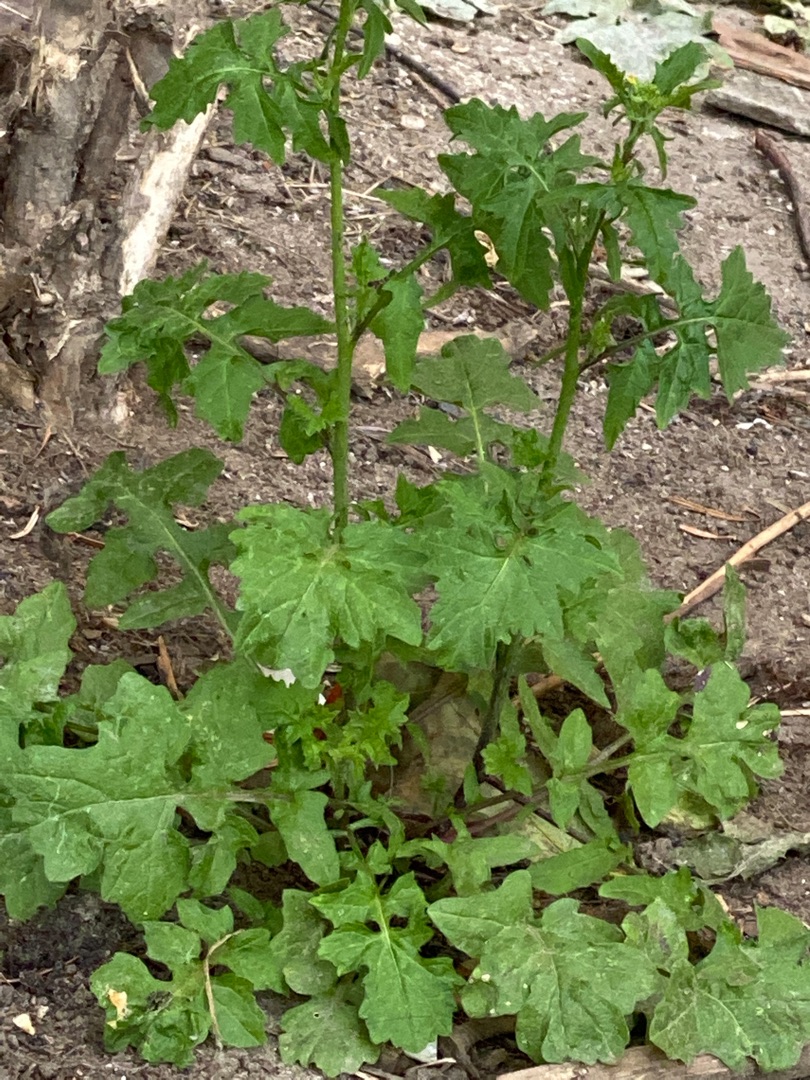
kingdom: Plantae
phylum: Tracheophyta
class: Magnoliopsida
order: Brassicales
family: Brassicaceae
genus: Sisymbrium
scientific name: Sisymbrium officinale
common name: Rank vejsennep
